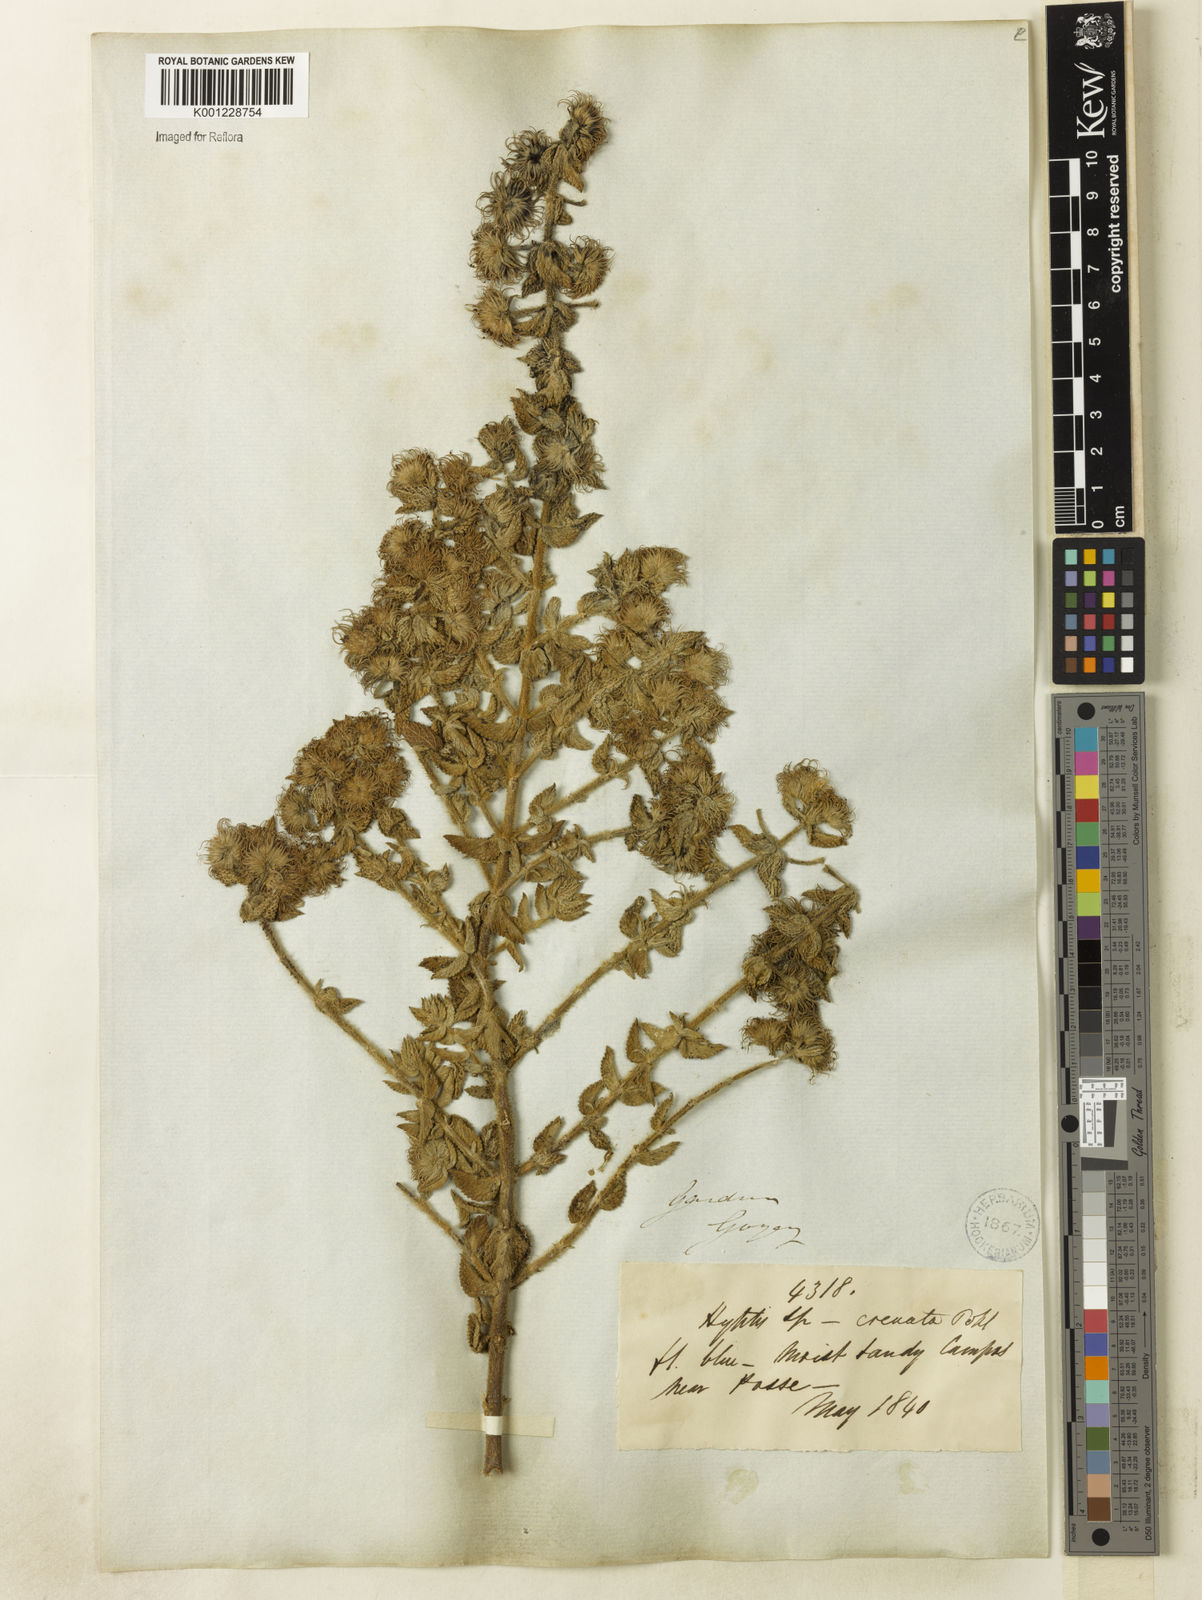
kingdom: Plantae
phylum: Tracheophyta
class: Magnoliopsida
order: Lamiales
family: Lamiaceae
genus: Hyptis
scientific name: Hyptis crenata
